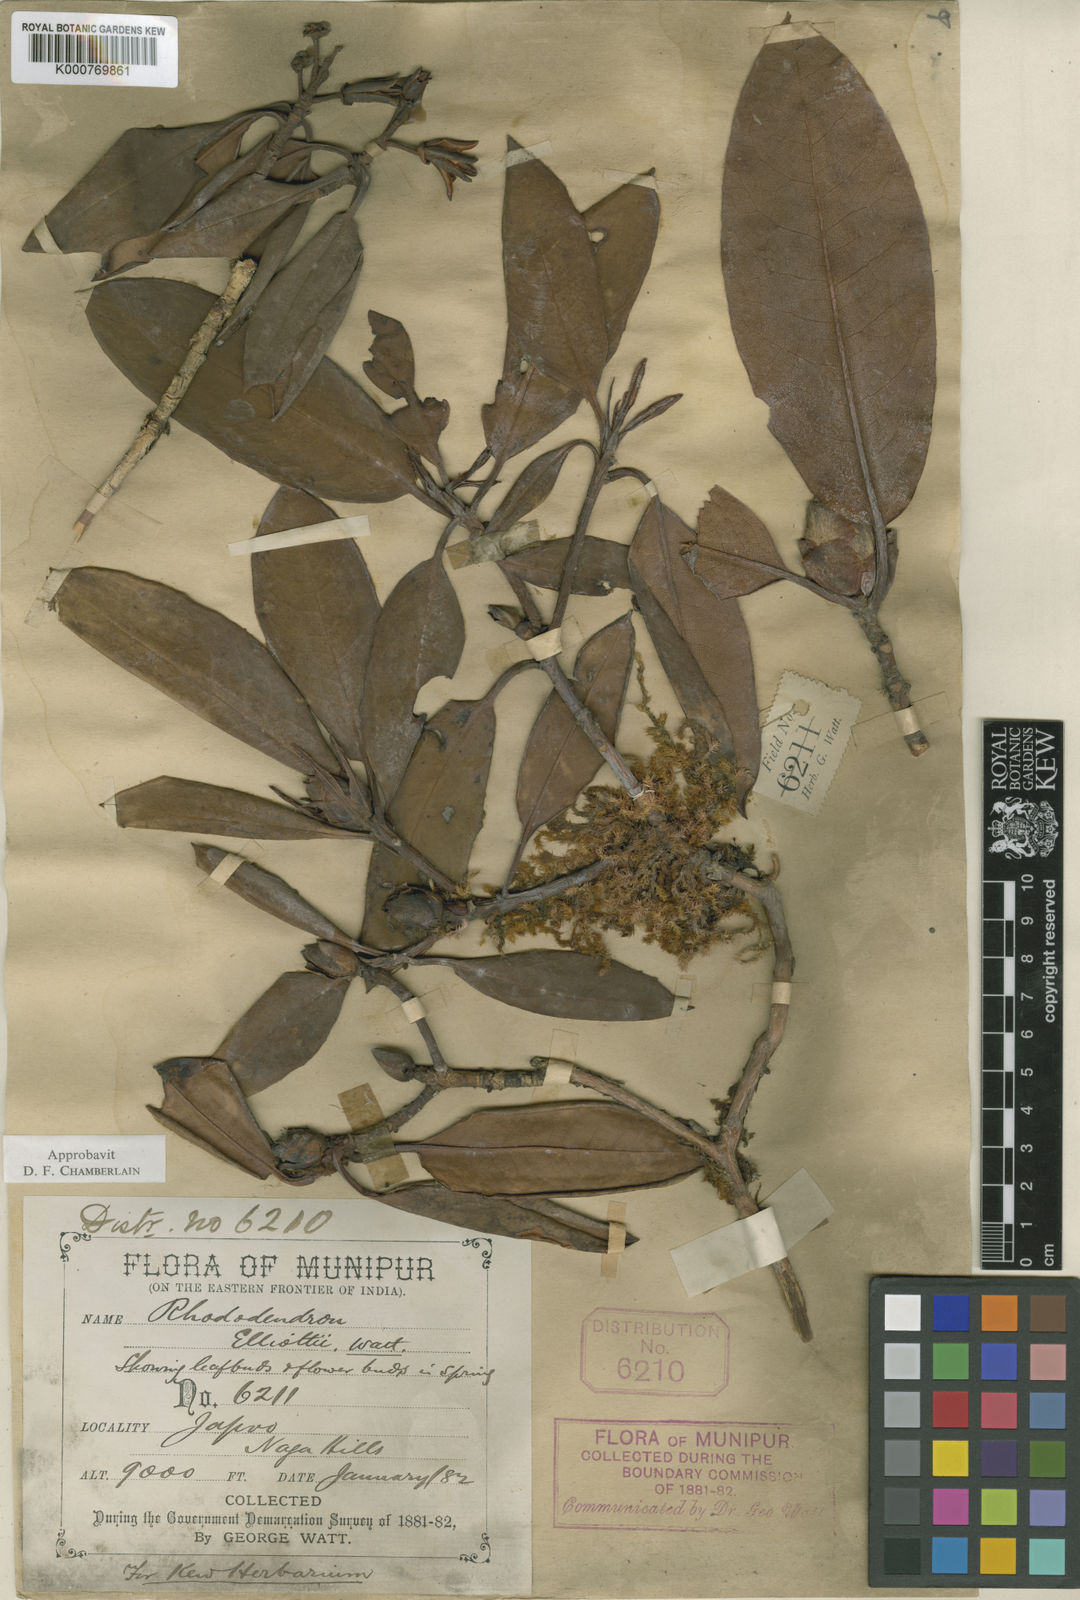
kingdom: Plantae
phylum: Tracheophyta
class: Magnoliopsida
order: Ericales
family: Ericaceae
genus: Rhododendron
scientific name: Rhododendron
